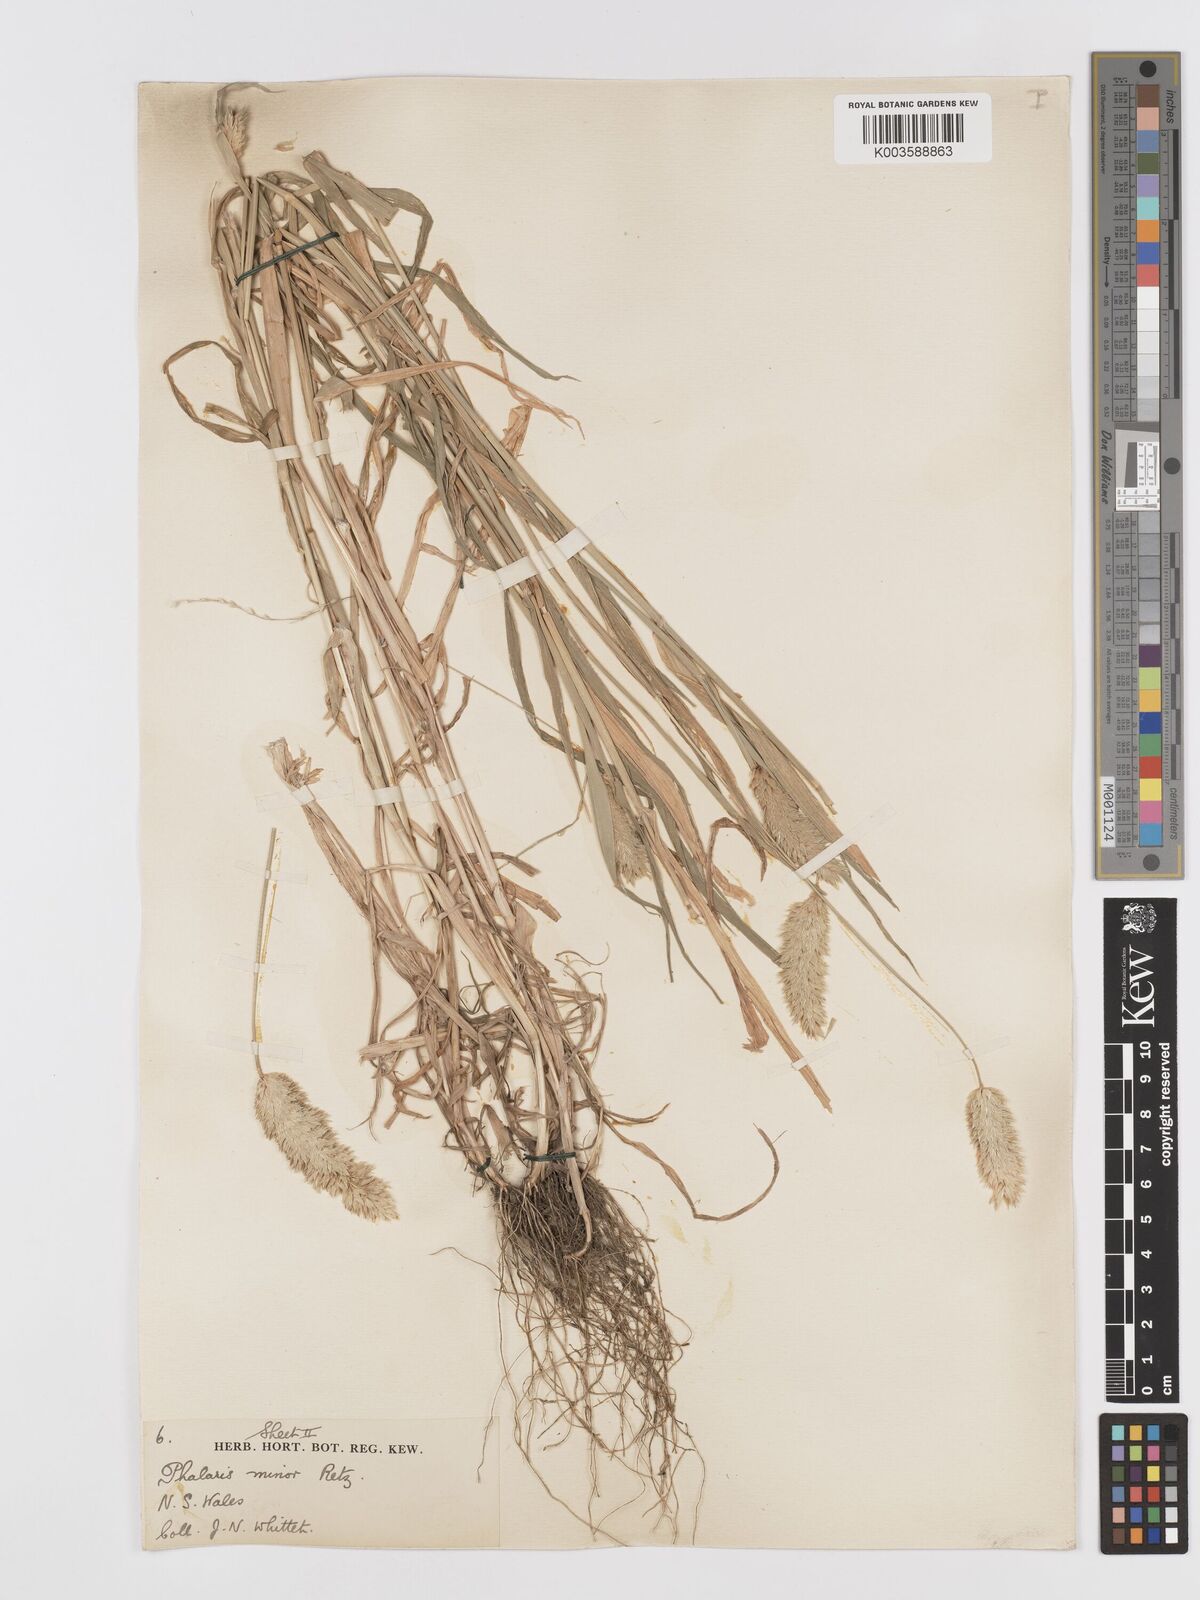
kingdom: Plantae
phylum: Tracheophyta
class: Liliopsida
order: Poales
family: Poaceae
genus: Phalaris
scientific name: Phalaris minor
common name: Littleseed canarygrass
